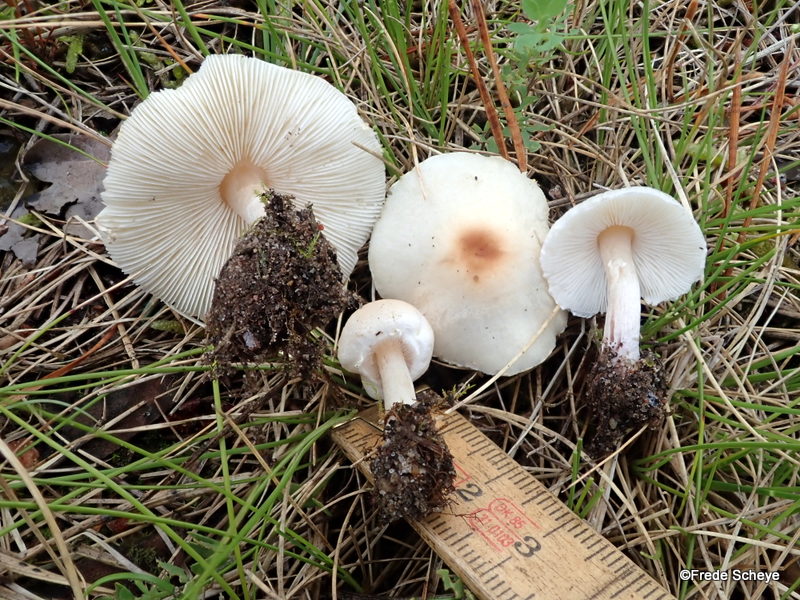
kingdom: Fungi
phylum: Basidiomycota
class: Agaricomycetes
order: Agaricales
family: Agaricaceae
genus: Lepiota
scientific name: Lepiota cristata
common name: stinkende parasolhat
